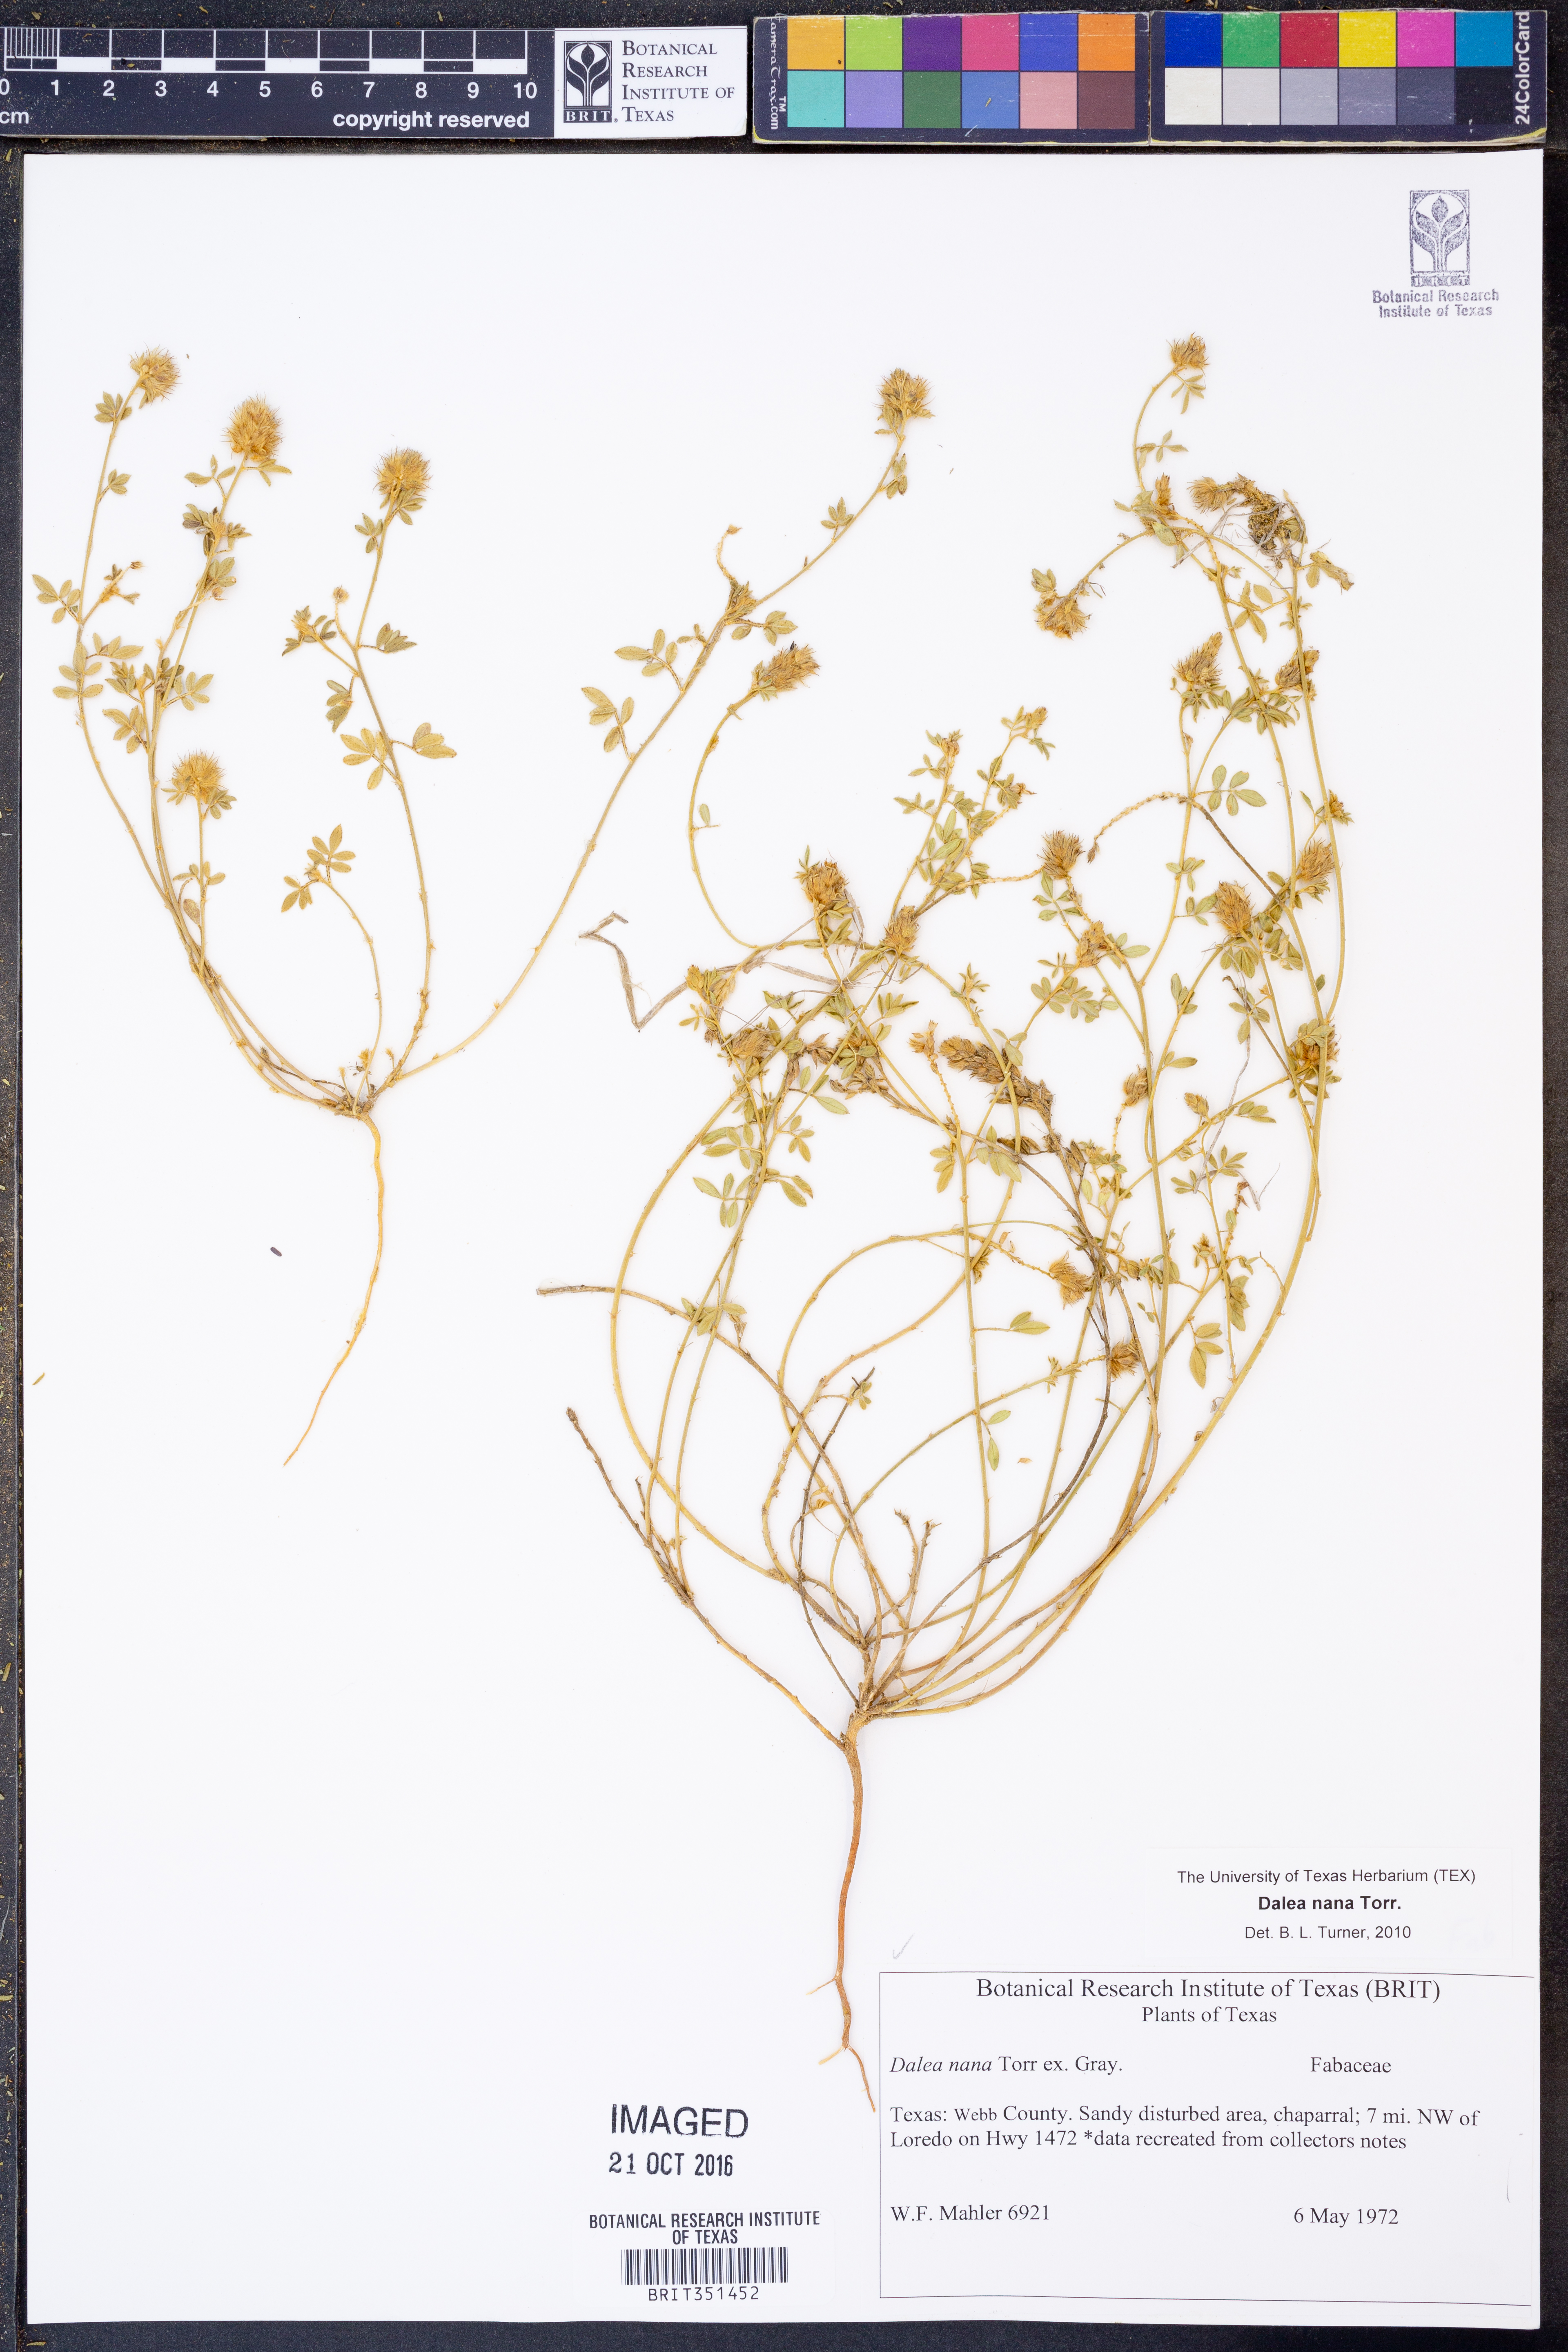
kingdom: Plantae
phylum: Tracheophyta
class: Magnoliopsida
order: Fabales
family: Fabaceae
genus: Dalea
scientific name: Dalea nana
